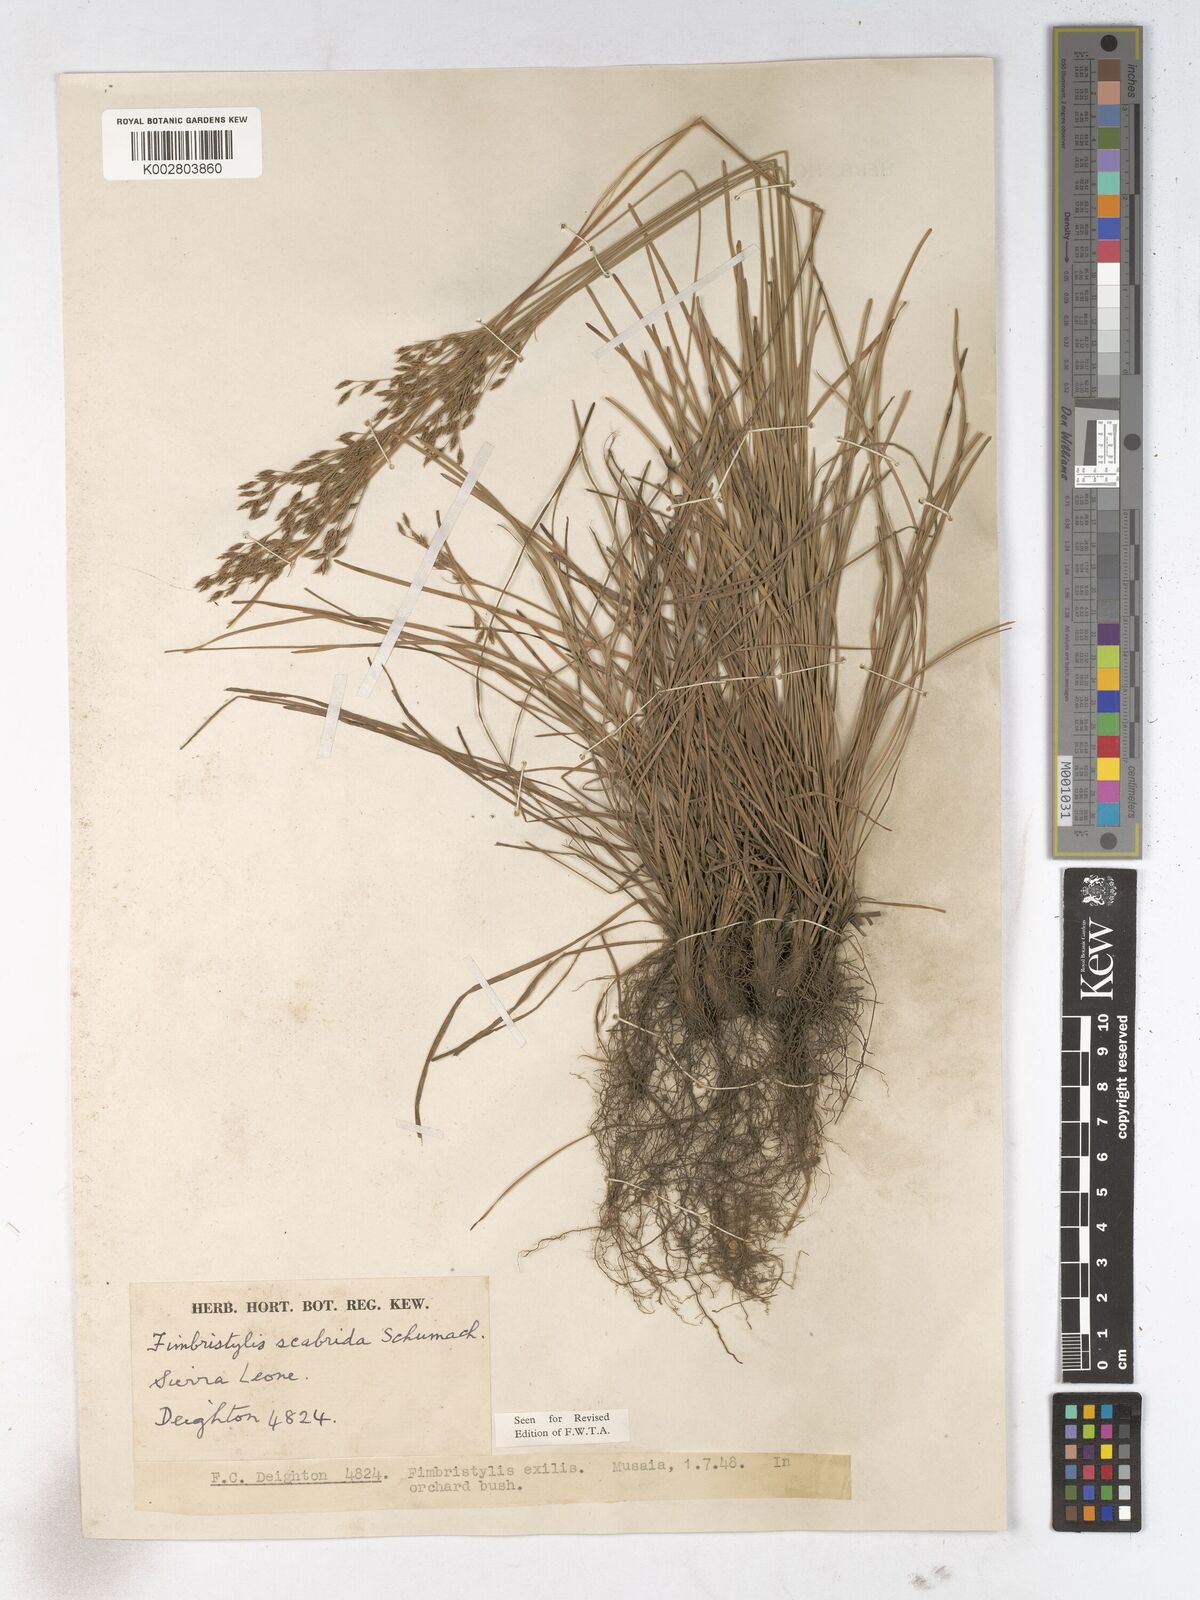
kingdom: Plantae
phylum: Tracheophyta
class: Liliopsida
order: Poales
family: Cyperaceae
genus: Fimbristylis
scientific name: Fimbristylis scabrida
